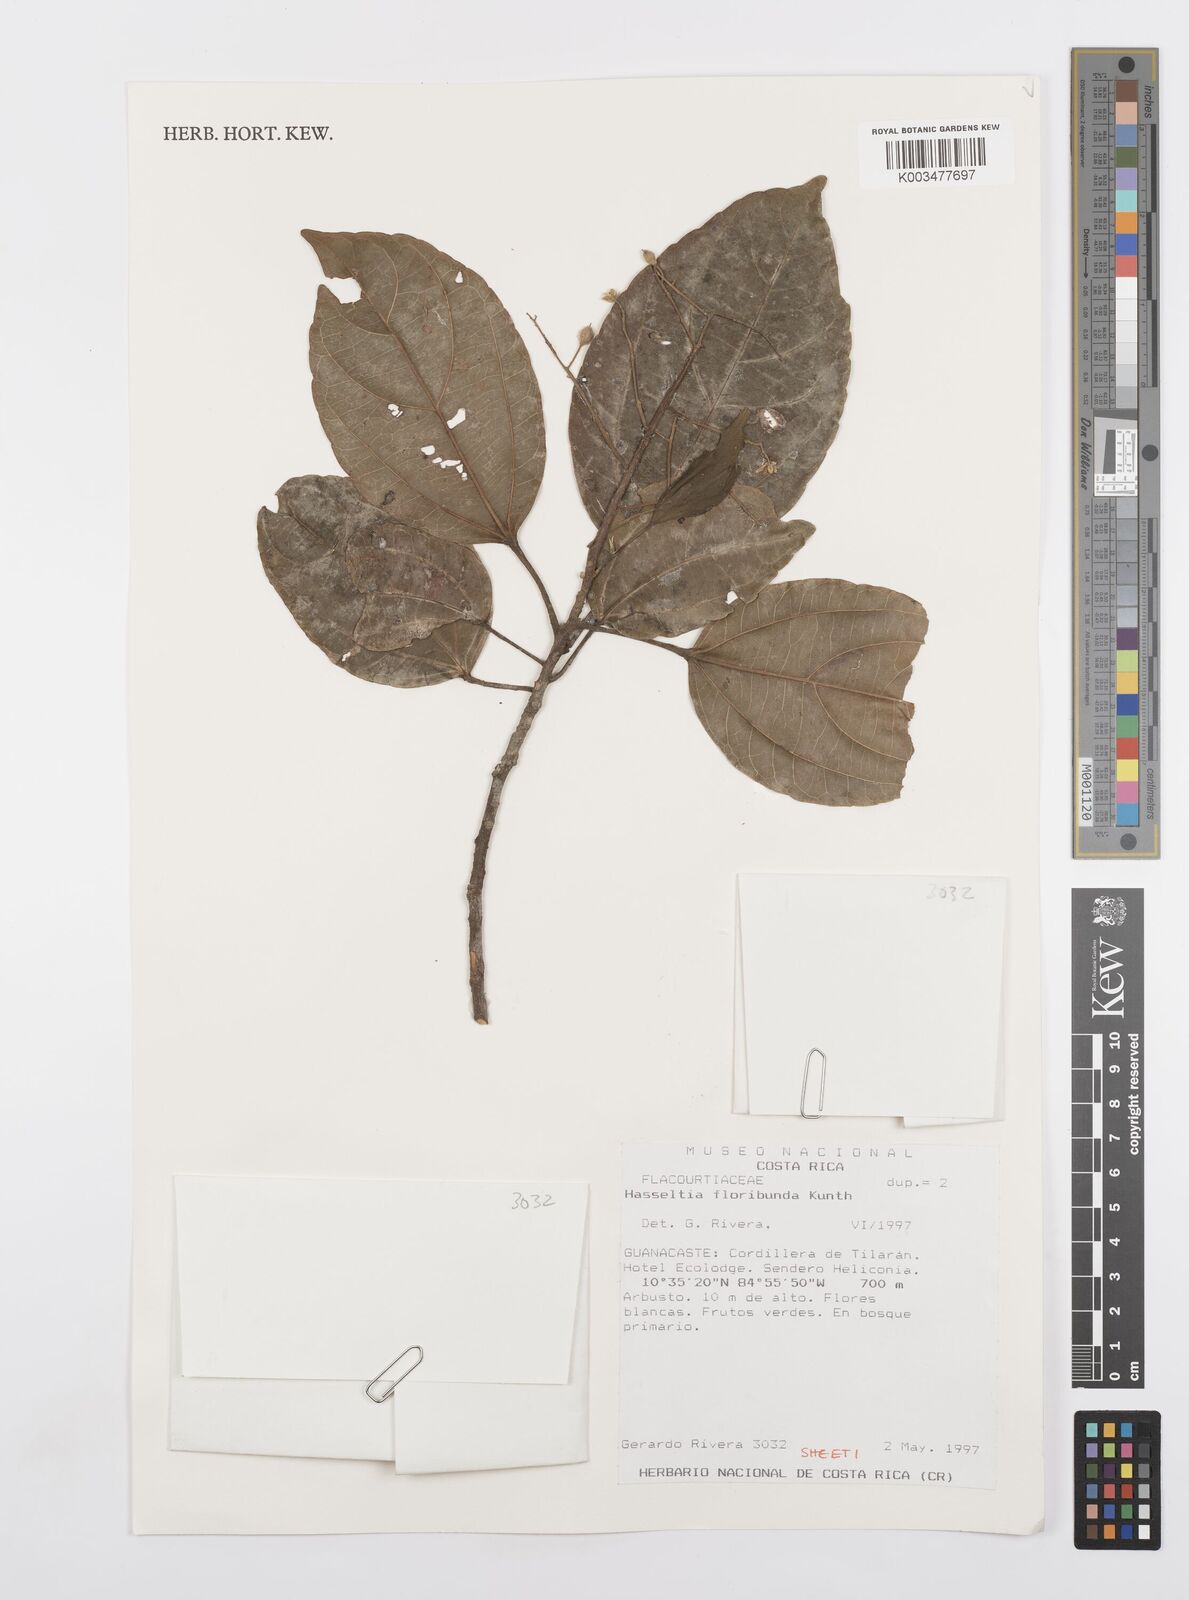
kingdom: Plantae
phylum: Tracheophyta
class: Magnoliopsida
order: Malpighiales
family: Salicaceae
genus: Pleuranthodendron
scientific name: Pleuranthodendron lindenii
